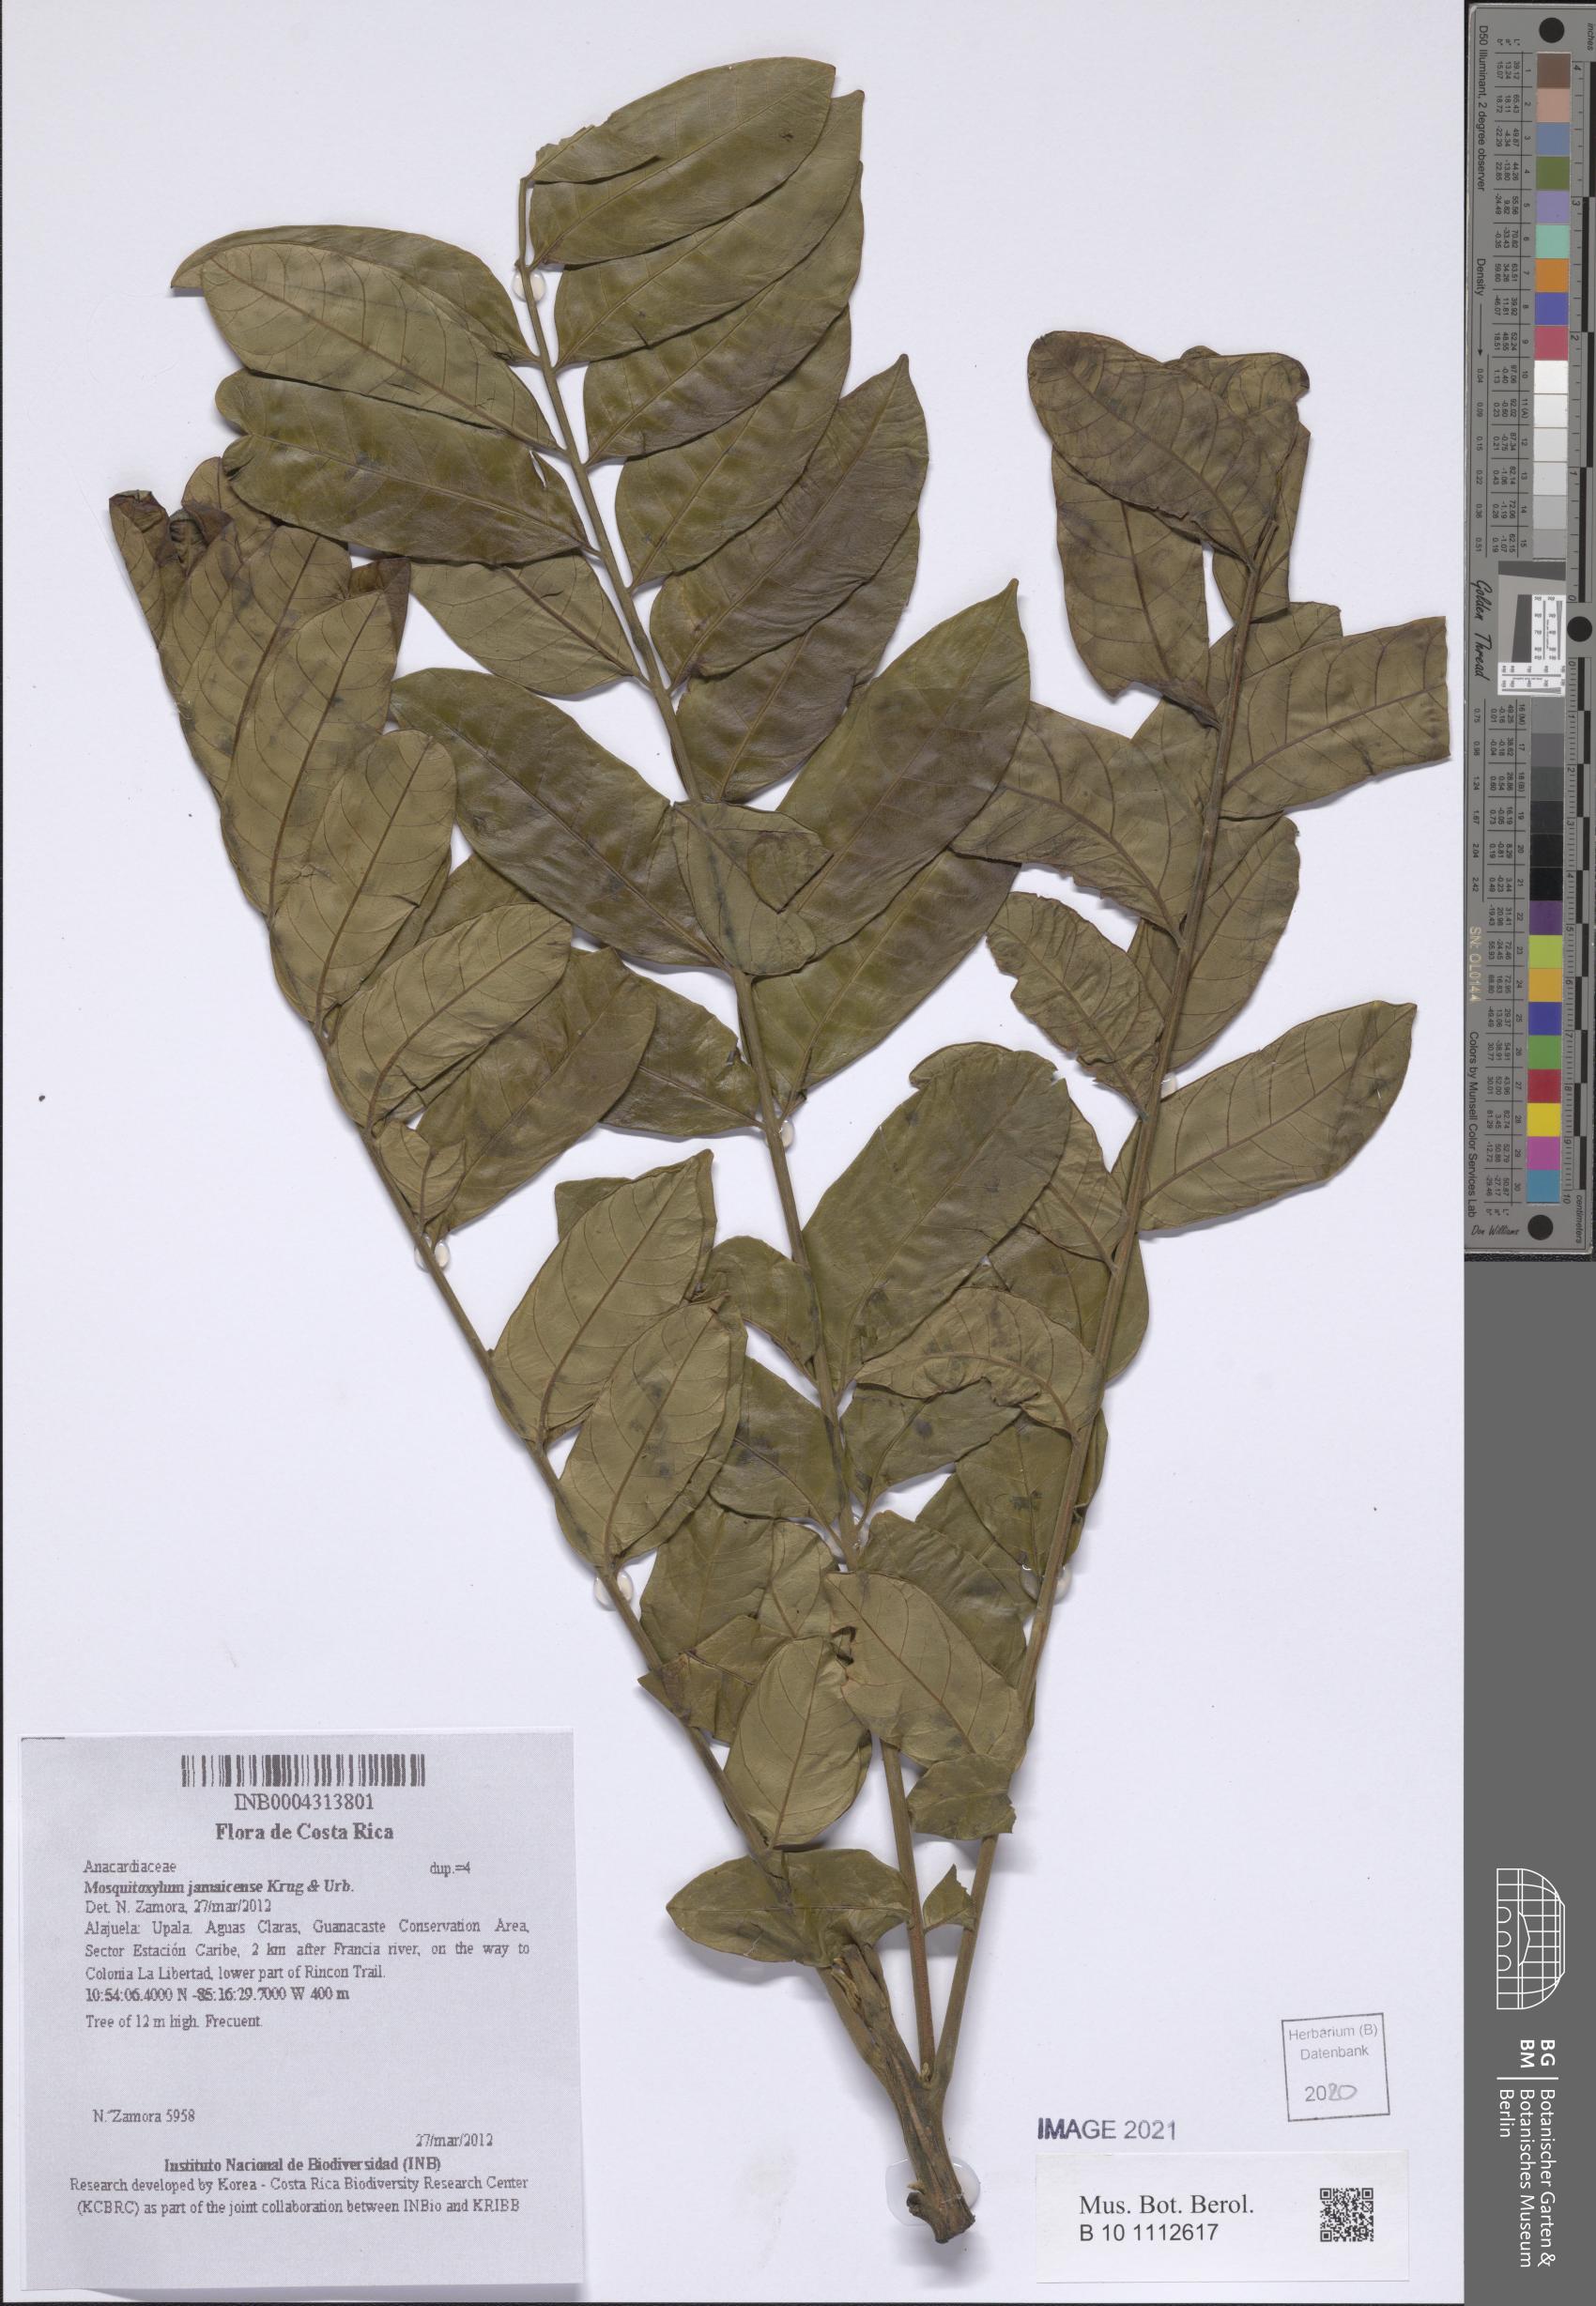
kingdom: Plantae
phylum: Tracheophyta
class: Magnoliopsida
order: Sapindales
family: Anacardiaceae
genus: Mosquitoxylum
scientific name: Mosquitoxylum jamaicense
